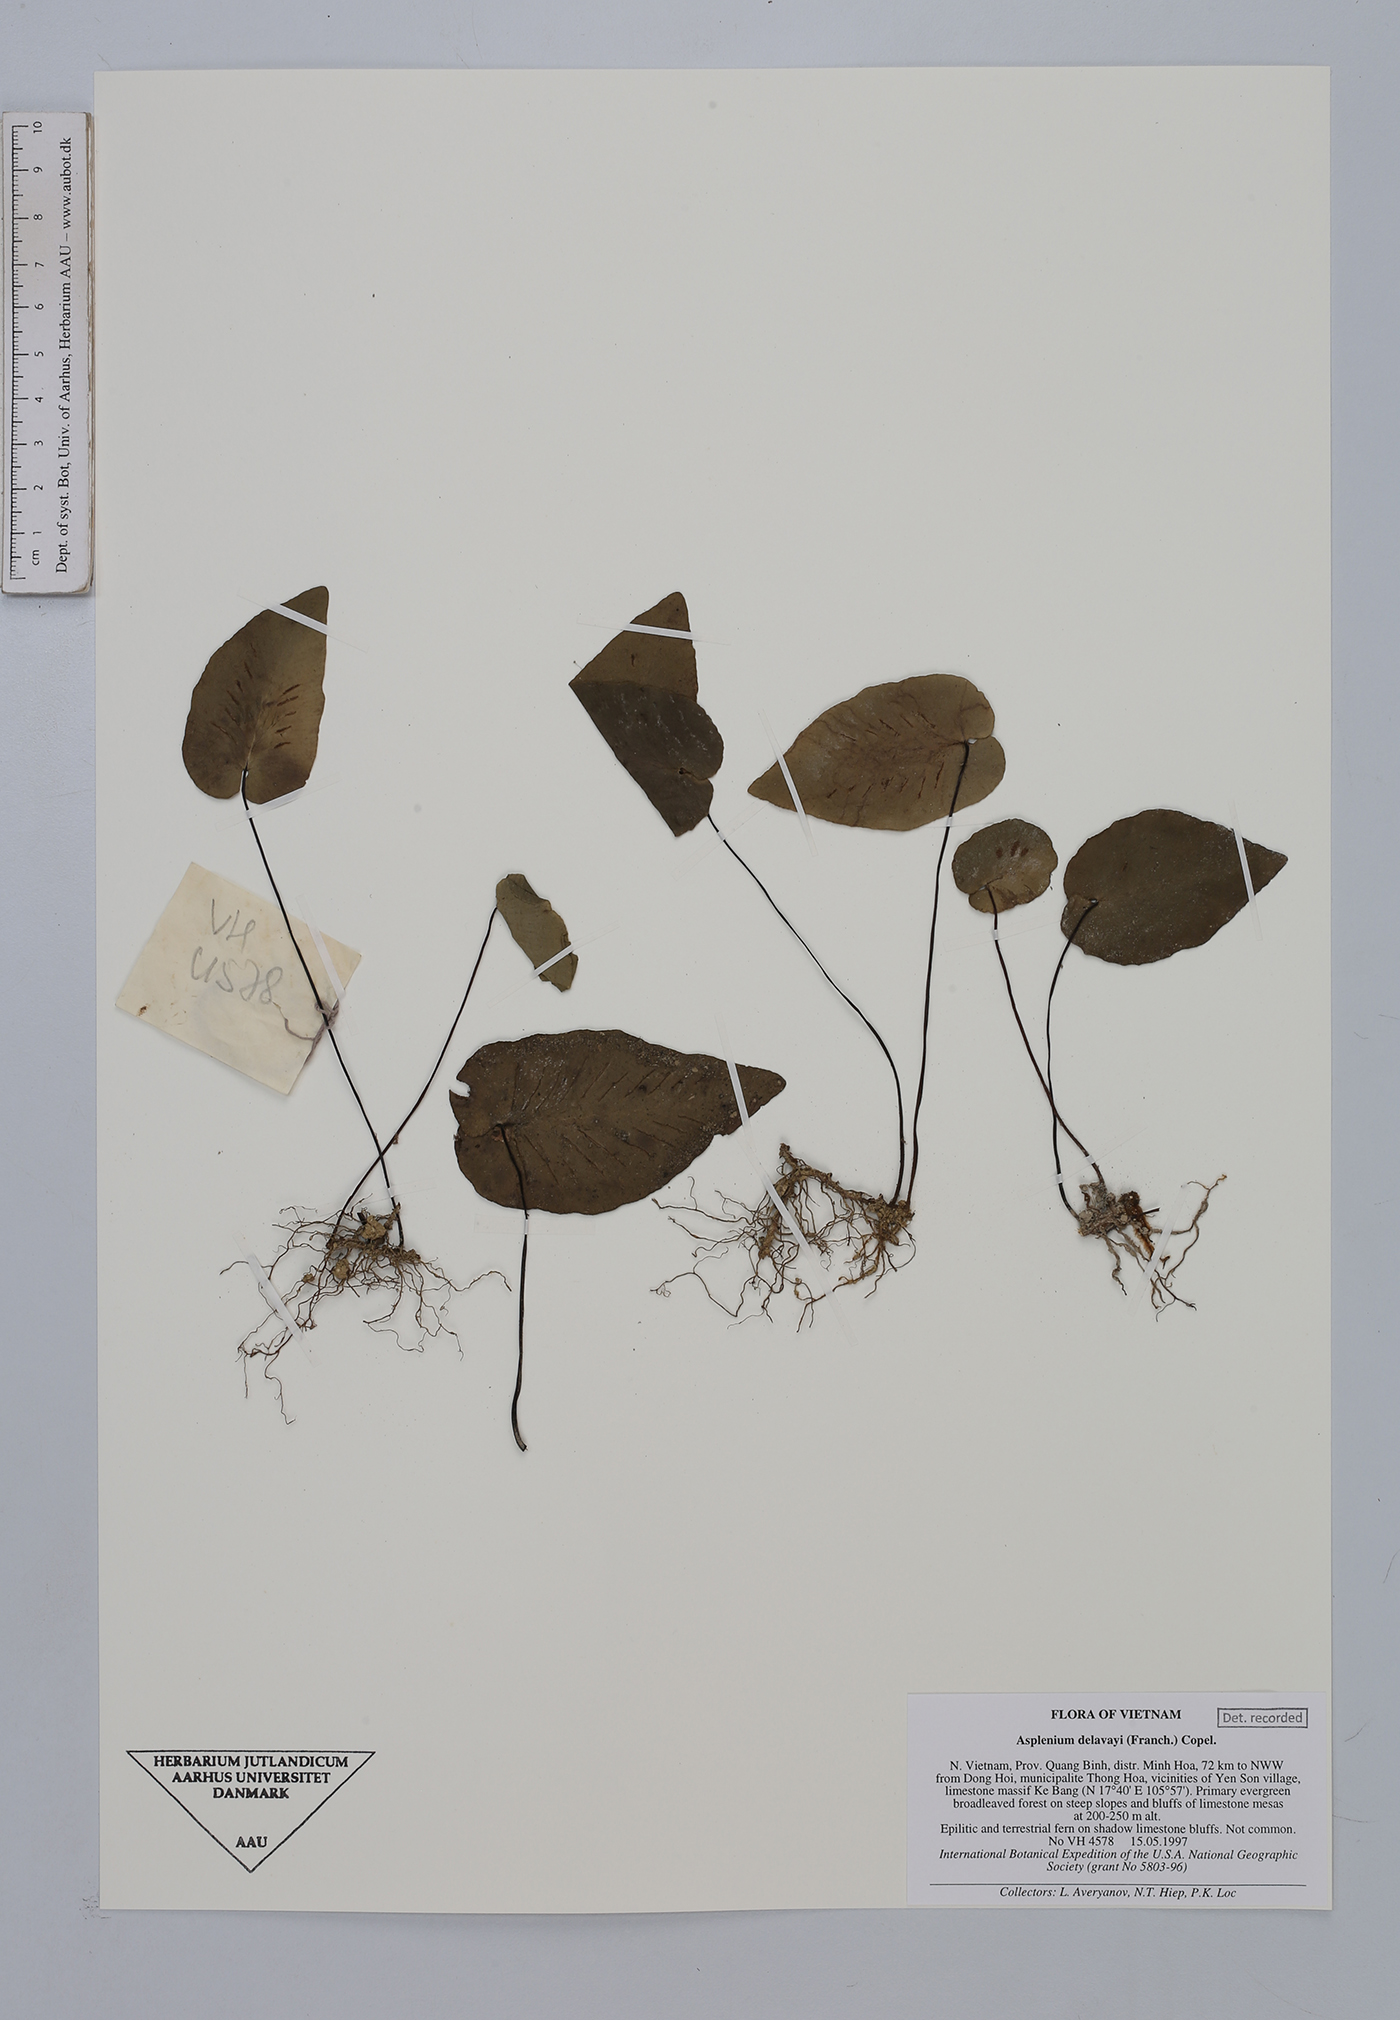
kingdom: Plantae
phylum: Tracheophyta
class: Polypodiopsida
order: Polypodiales
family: Aspleniaceae
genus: Asplenium
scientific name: Asplenium delavayi
